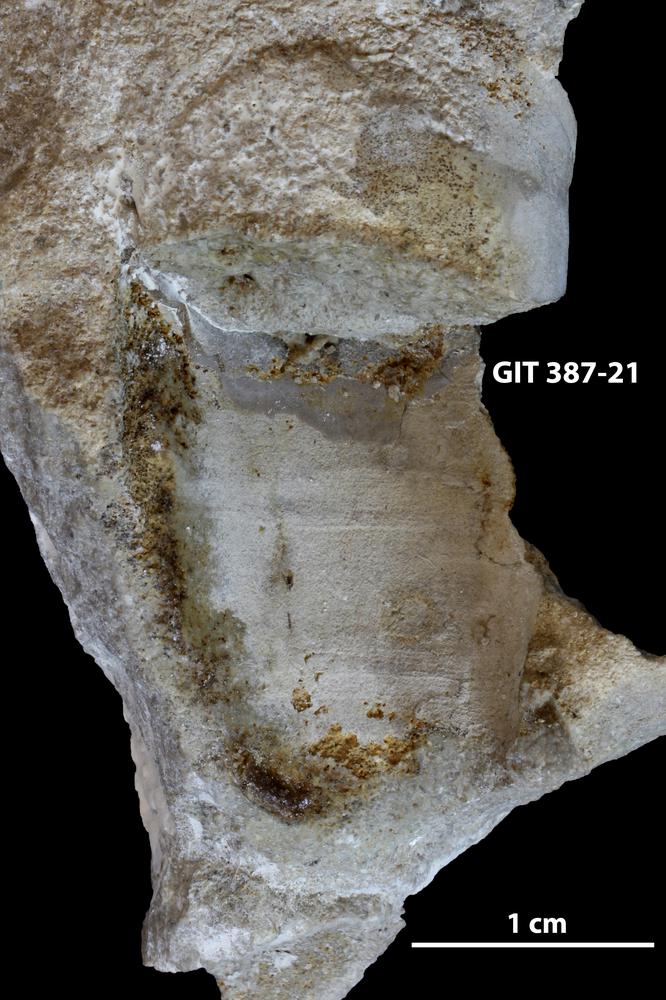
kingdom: Animalia
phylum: Annelida
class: Polychaeta
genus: Hyolithes
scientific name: Hyolithes
